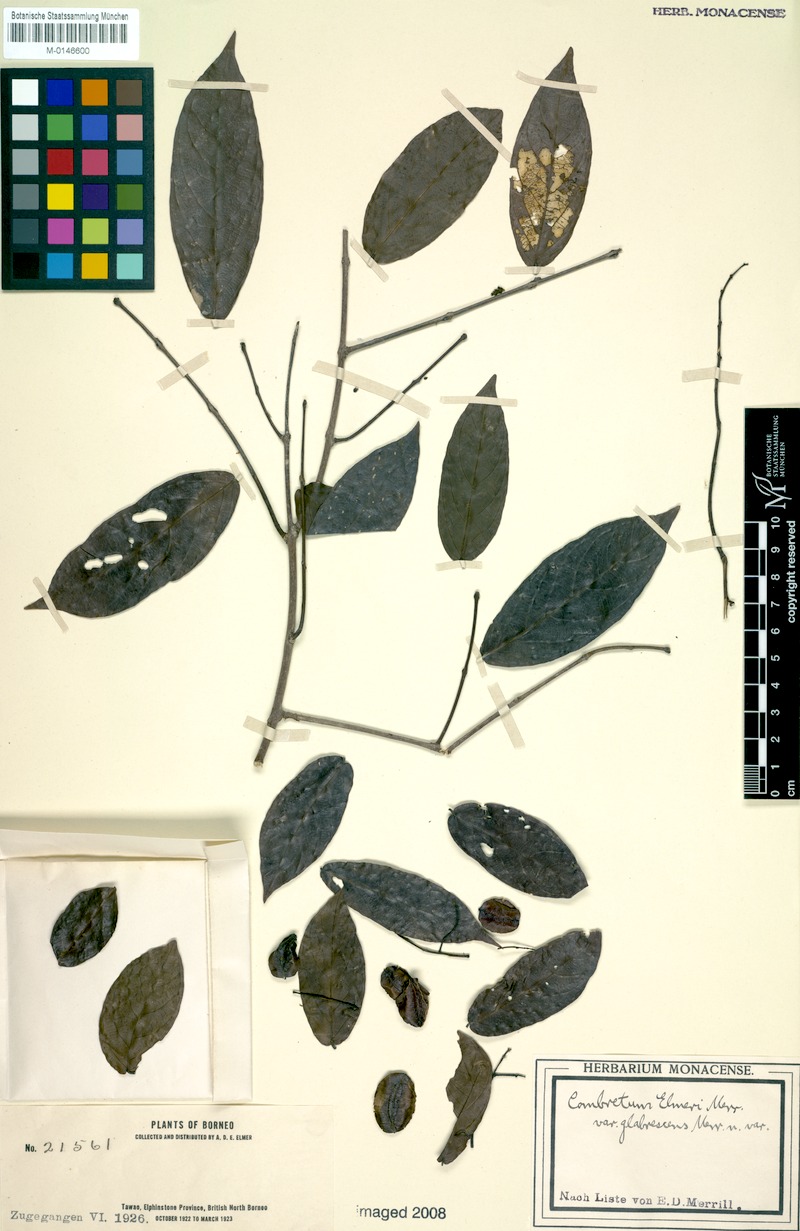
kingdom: Plantae
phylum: Tracheophyta
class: Magnoliopsida
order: Myrtales
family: Combretaceae
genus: Combretum
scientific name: Combretum nigrescens
